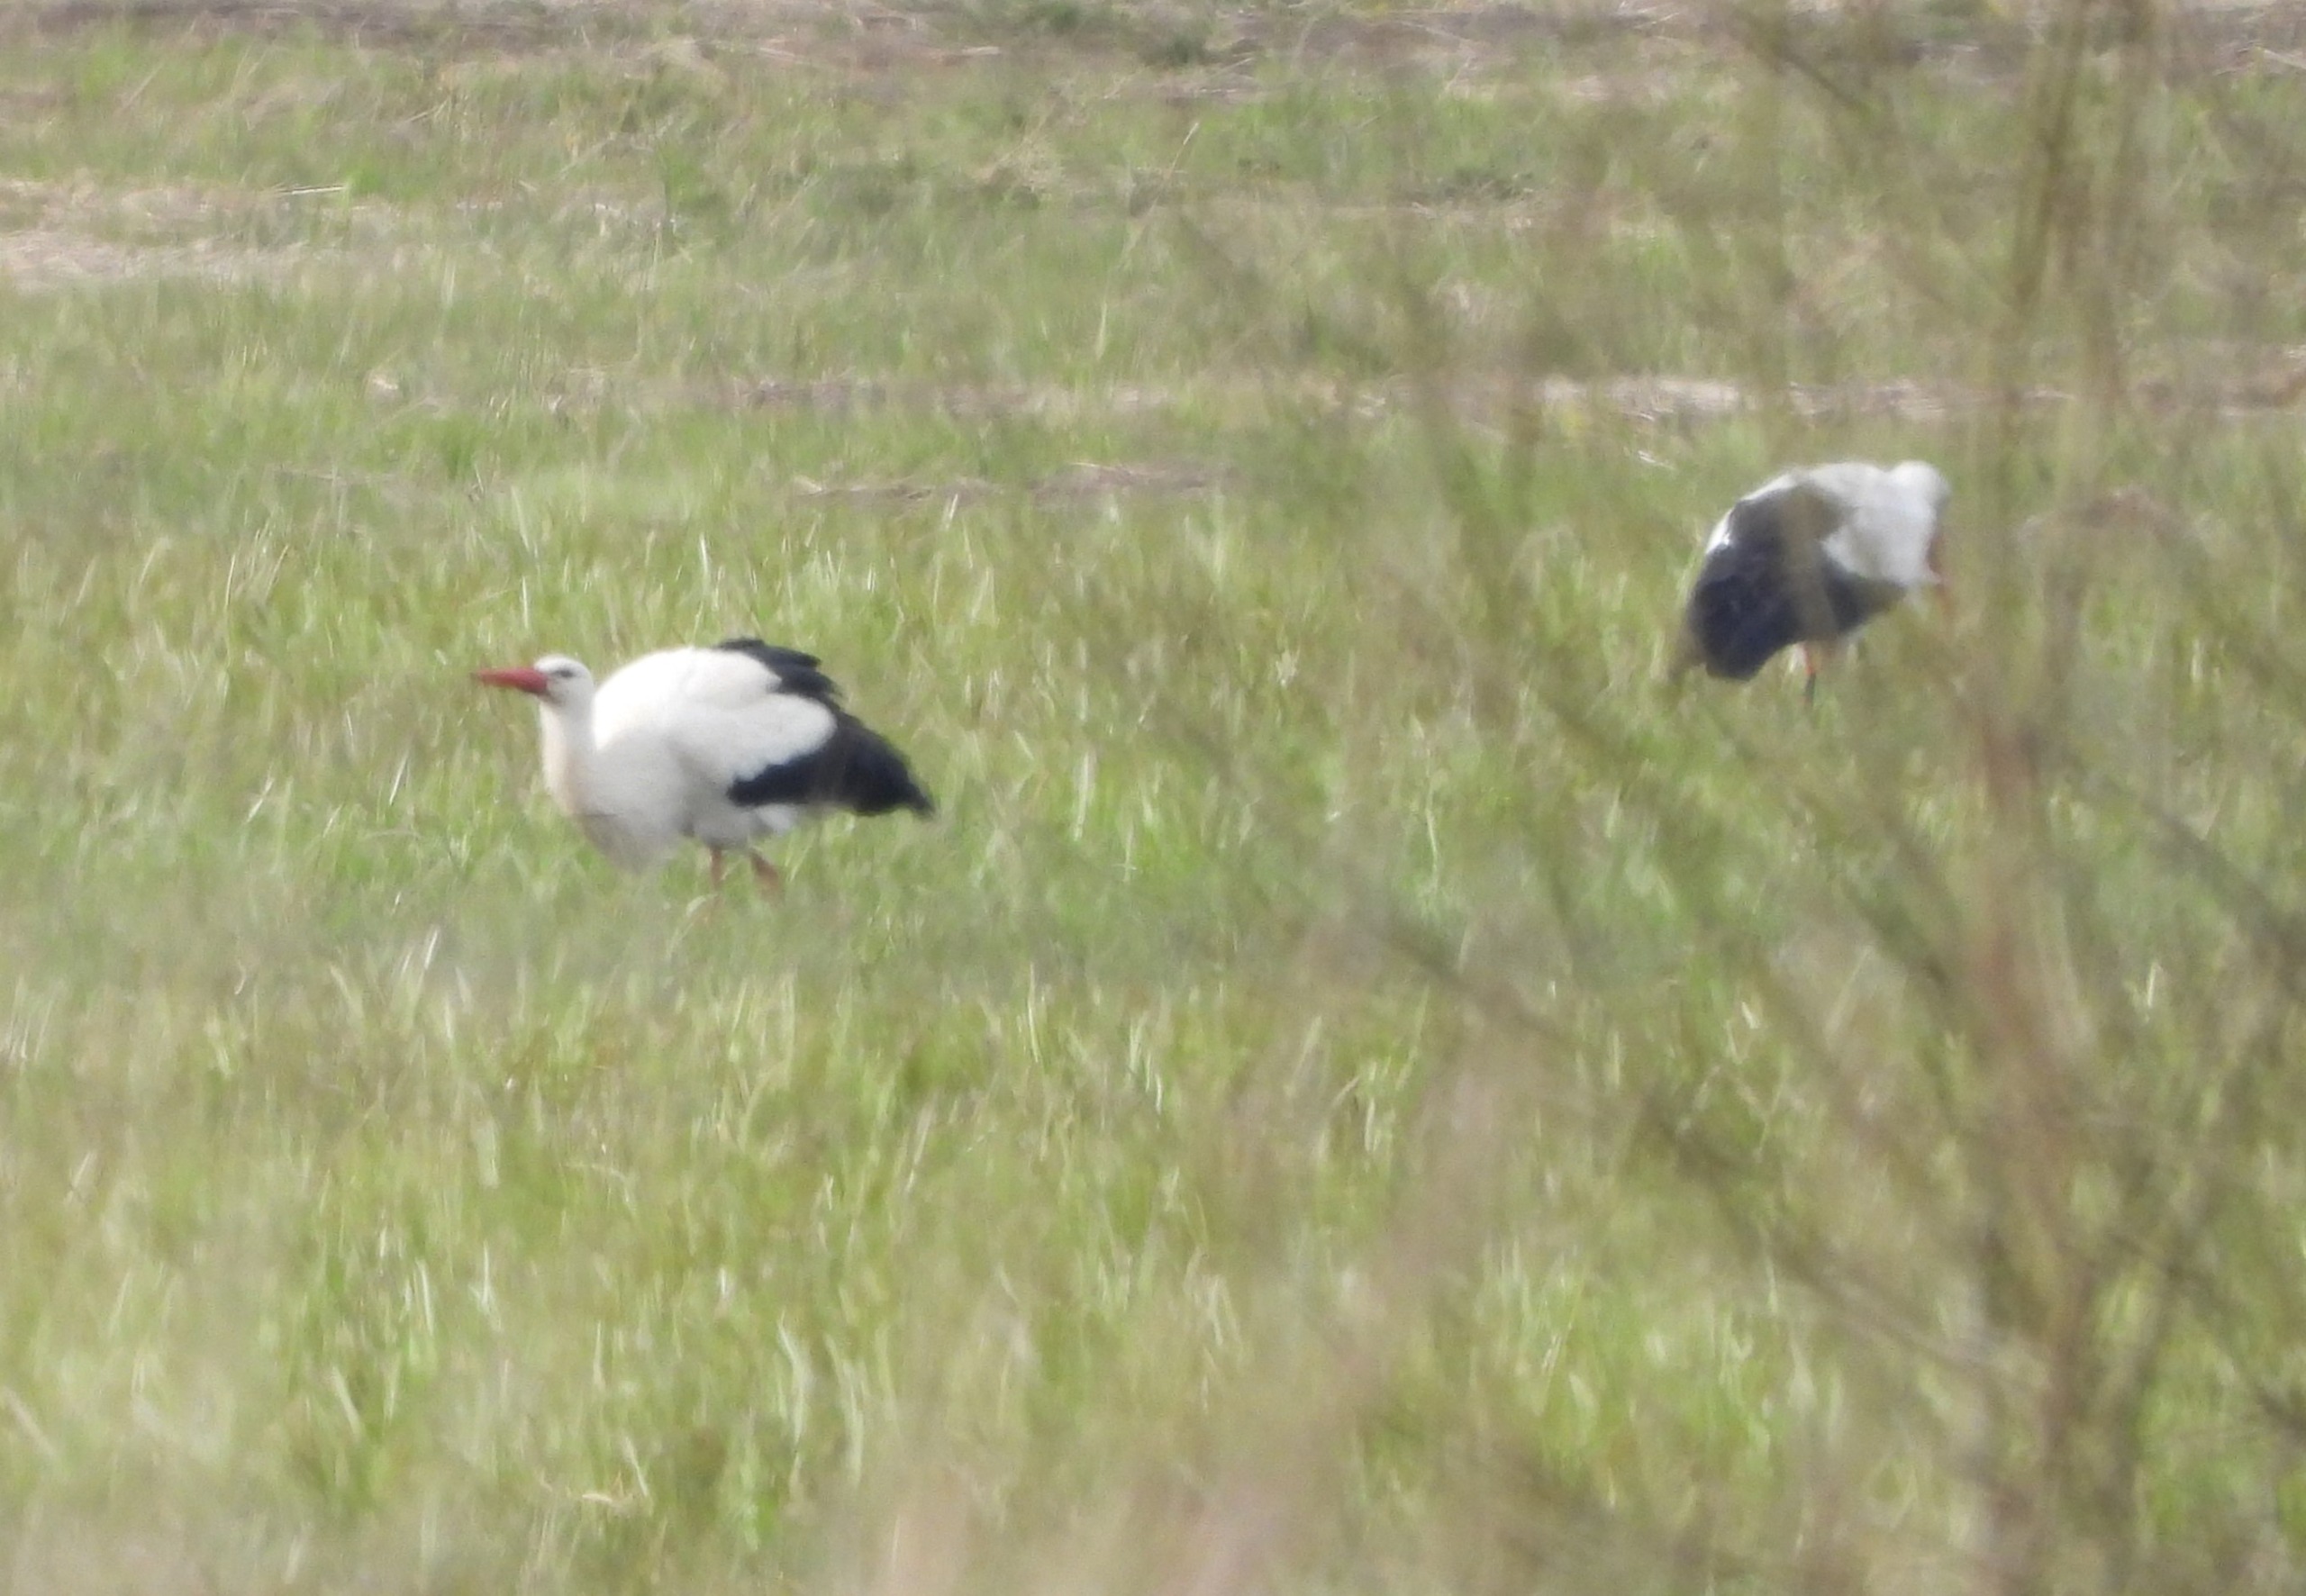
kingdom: Animalia
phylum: Chordata
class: Aves
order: Ciconiiformes
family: Ciconiidae
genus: Ciconia
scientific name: Ciconia ciconia
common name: Hvid stork
